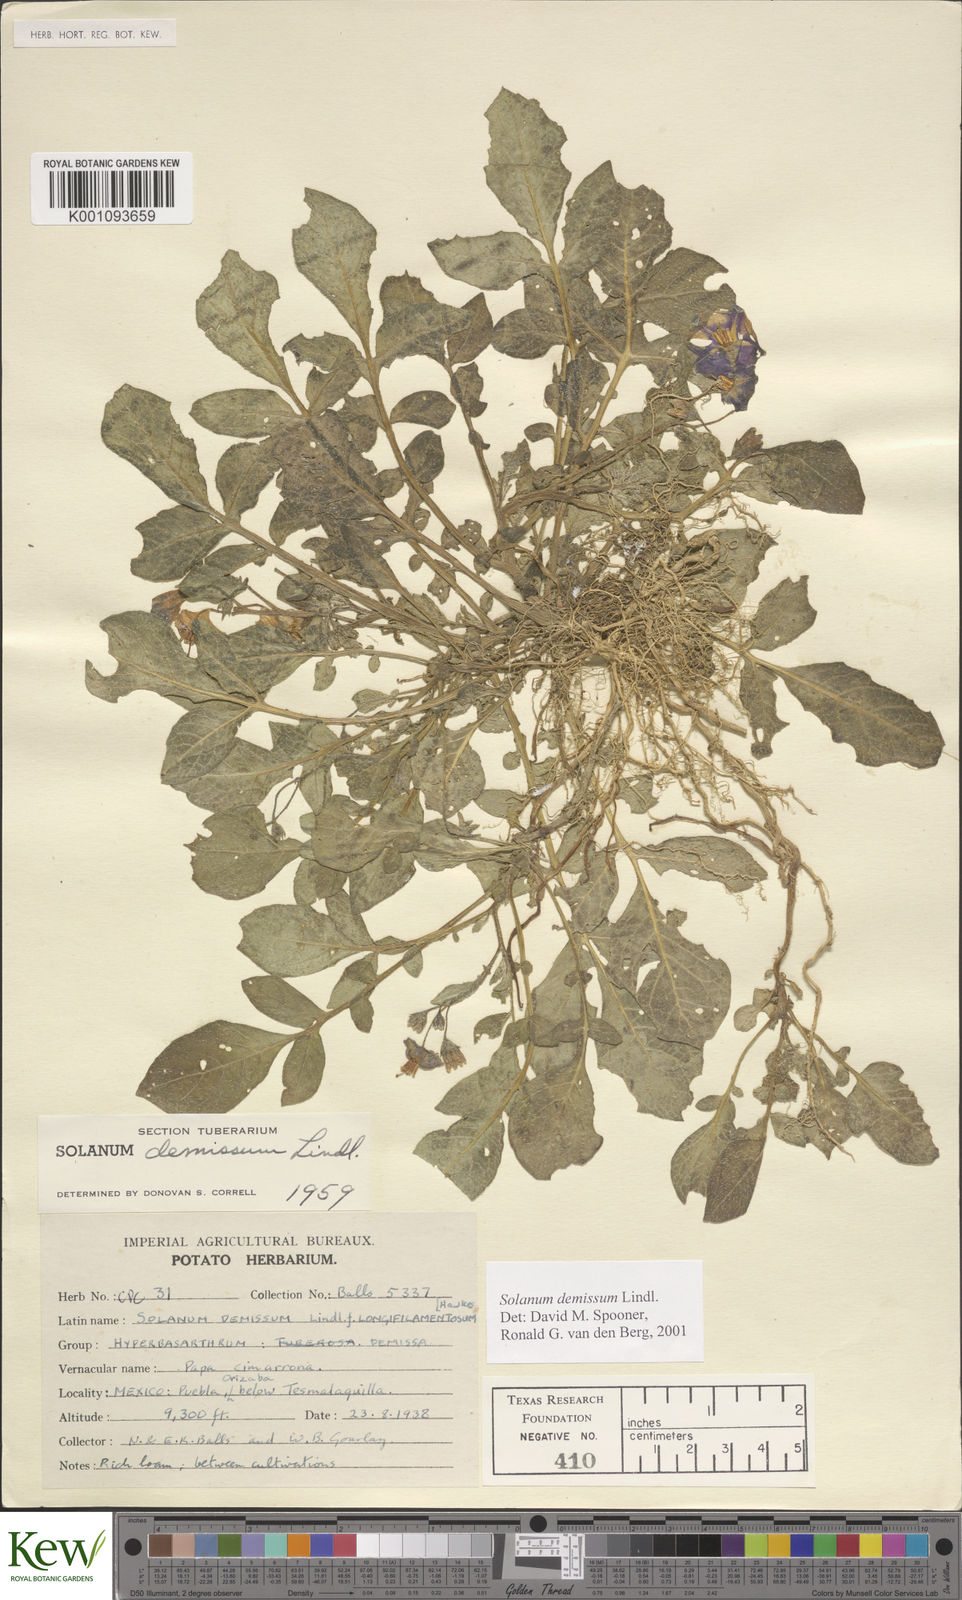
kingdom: Plantae
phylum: Tracheophyta
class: Magnoliopsida
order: Solanales
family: Solanaceae
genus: Solanum
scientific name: Solanum demissum
